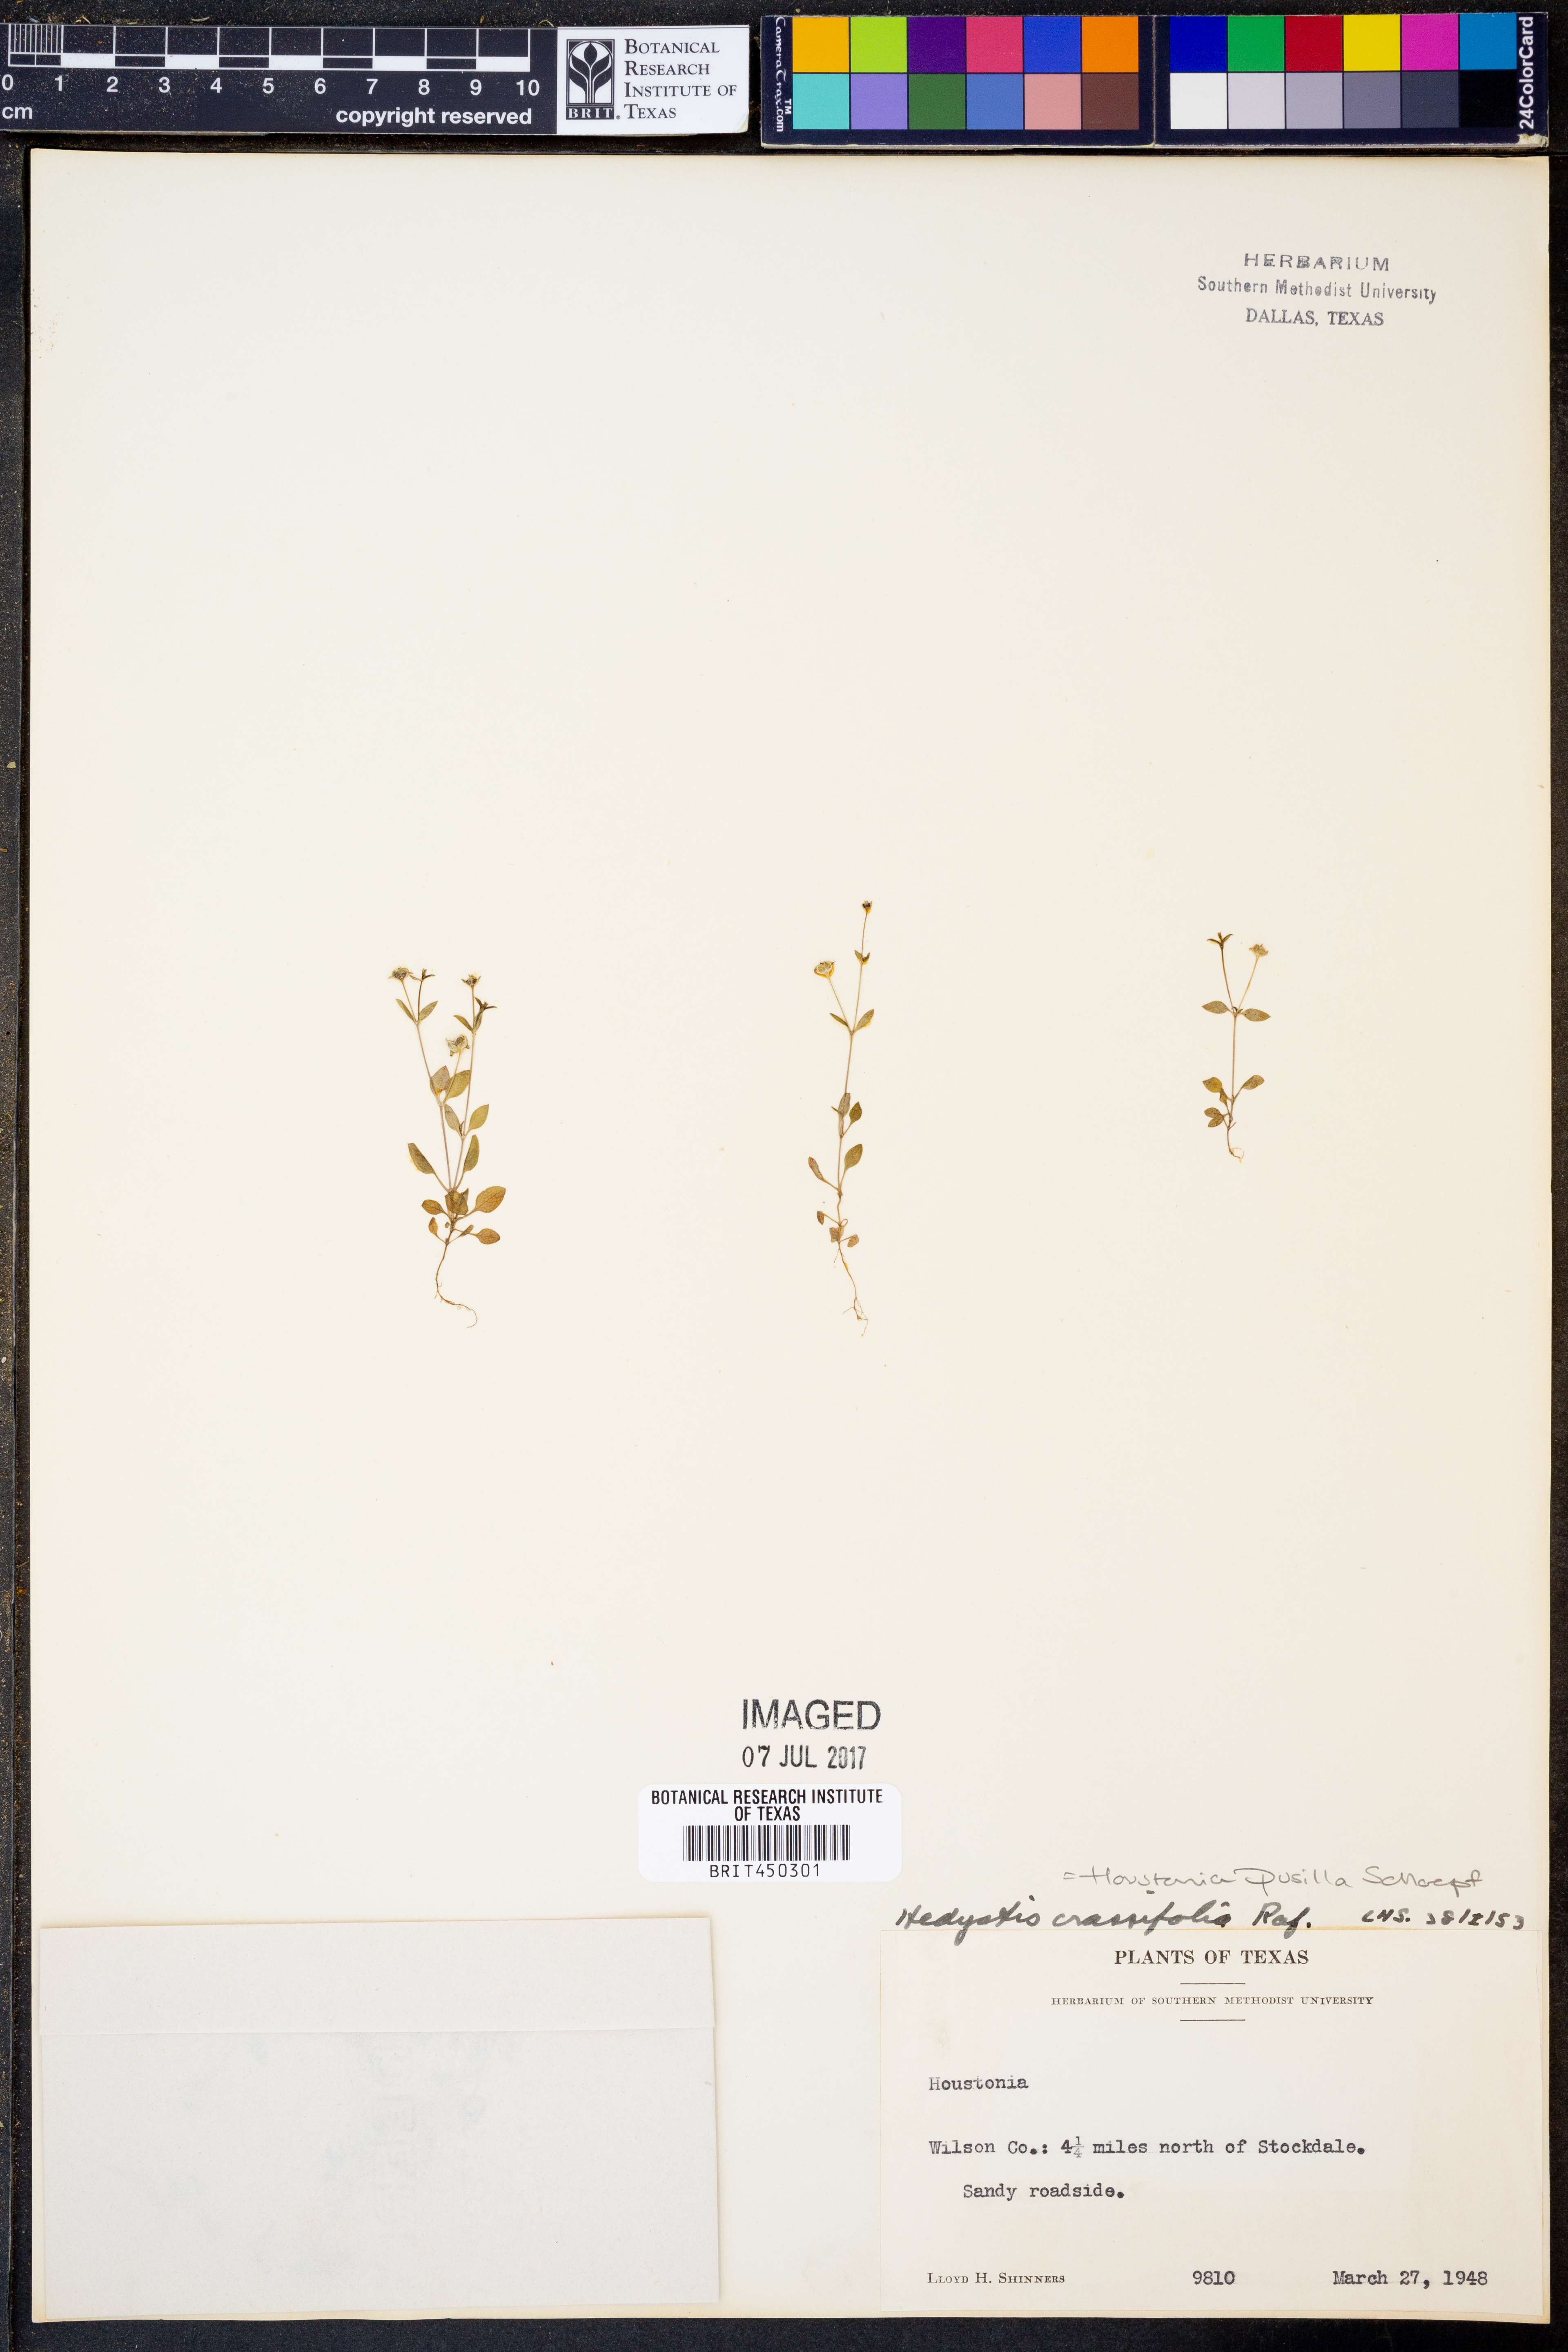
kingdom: Plantae
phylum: Tracheophyta
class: Magnoliopsida
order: Gentianales
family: Rubiaceae
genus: Houstonia
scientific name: Houstonia pusilla
